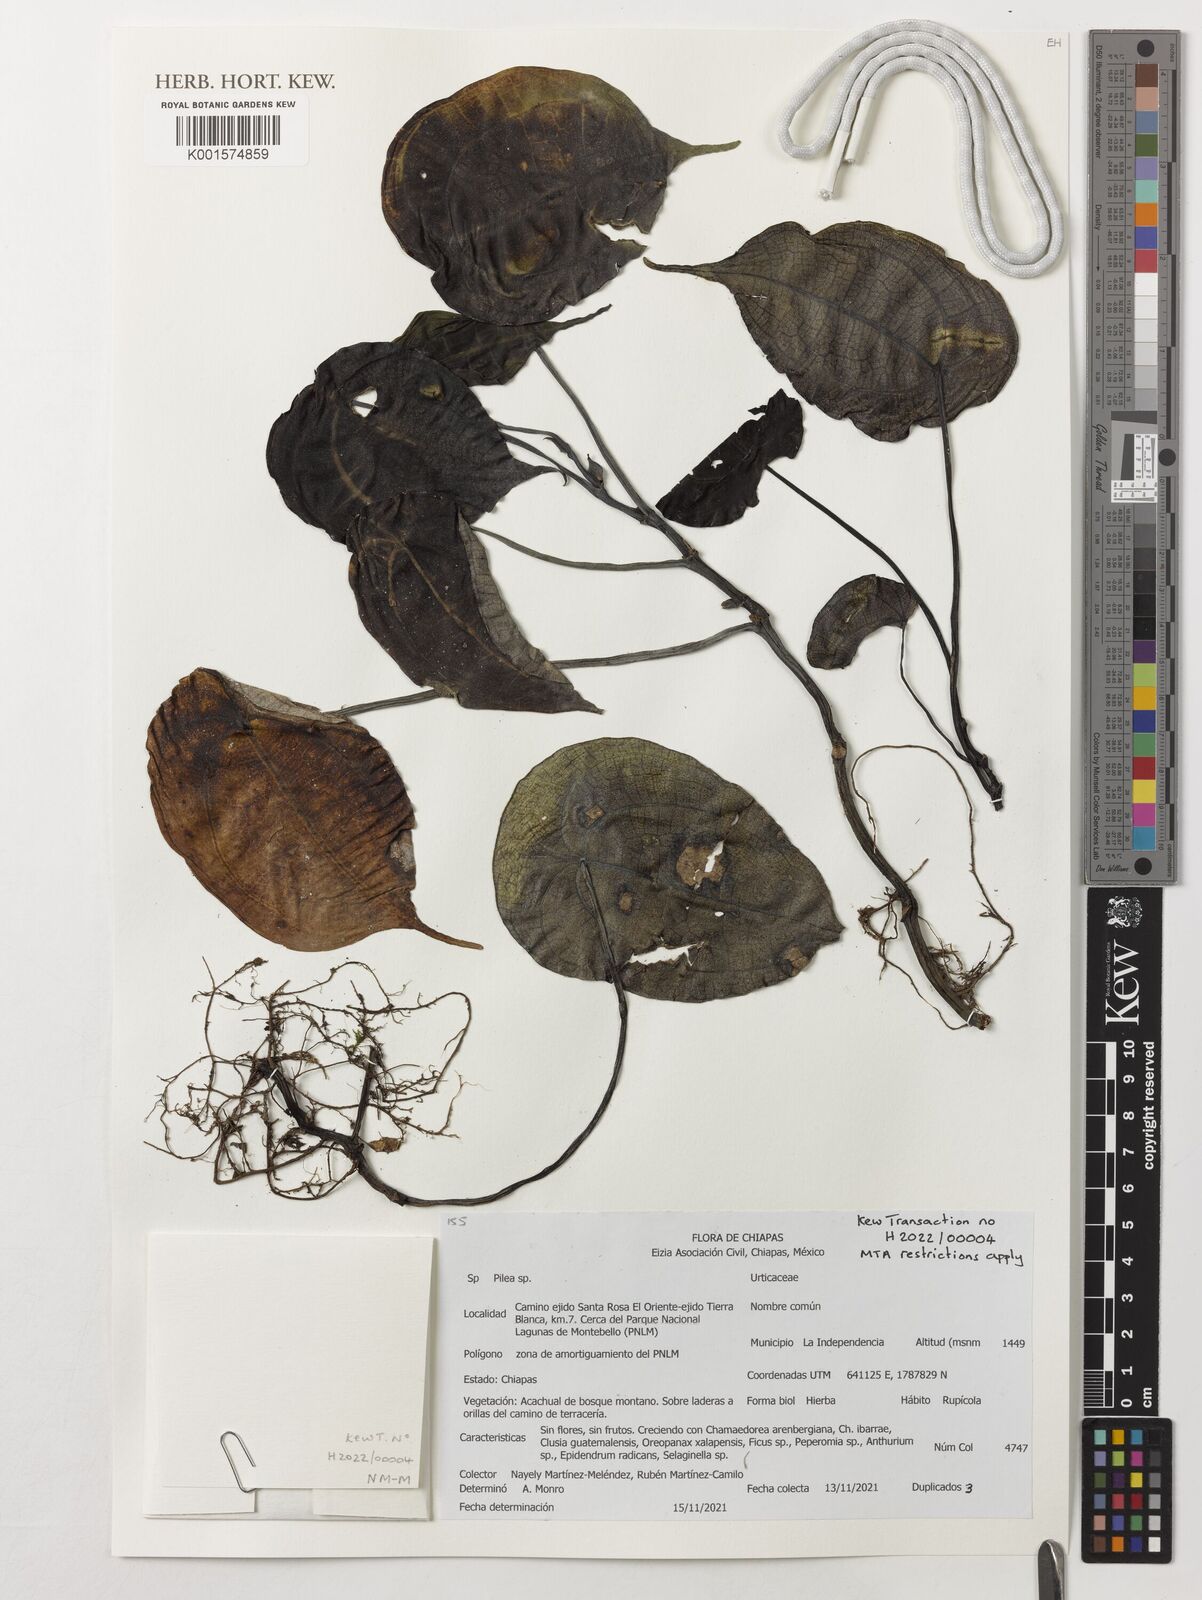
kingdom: Plantae
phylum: Tracheophyta
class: Magnoliopsida
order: Rosales
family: Urticaceae
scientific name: Urticaceae
